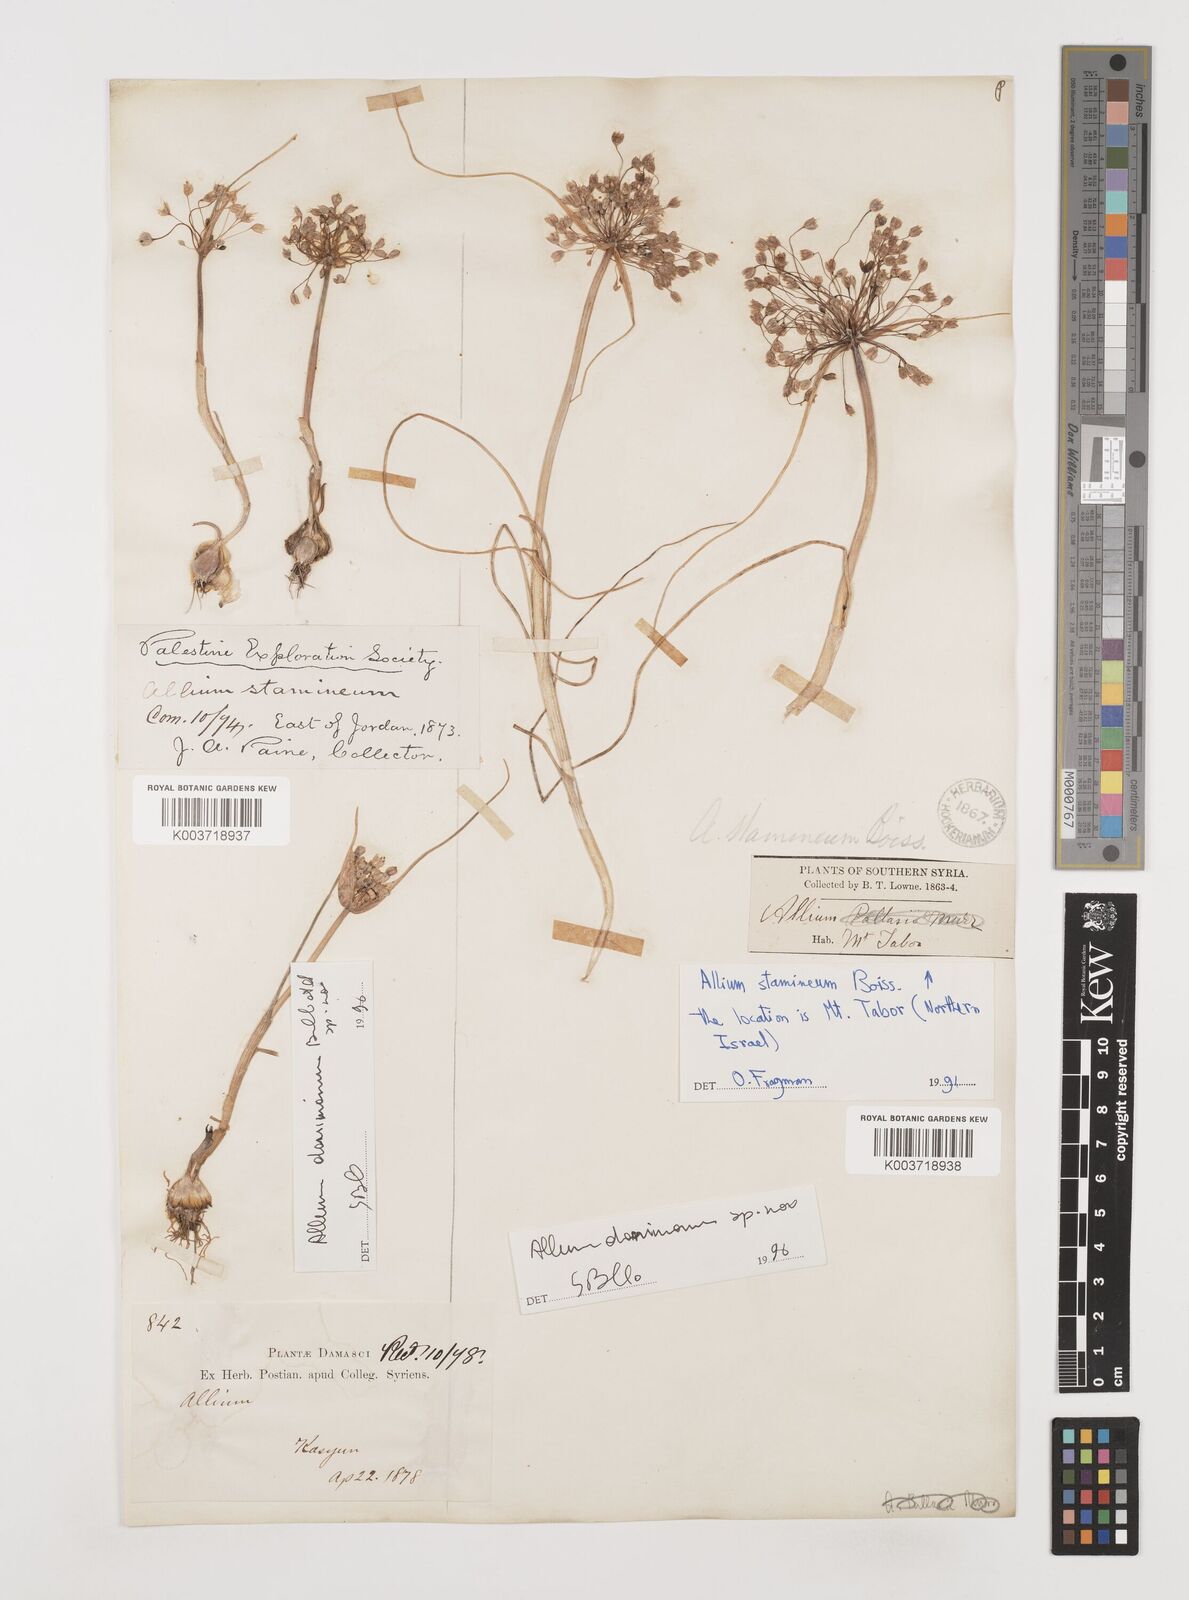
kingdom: Plantae
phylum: Tracheophyta
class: Liliopsida
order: Asparagales
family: Amaryllidaceae
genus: Allium
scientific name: Allium stamineum
